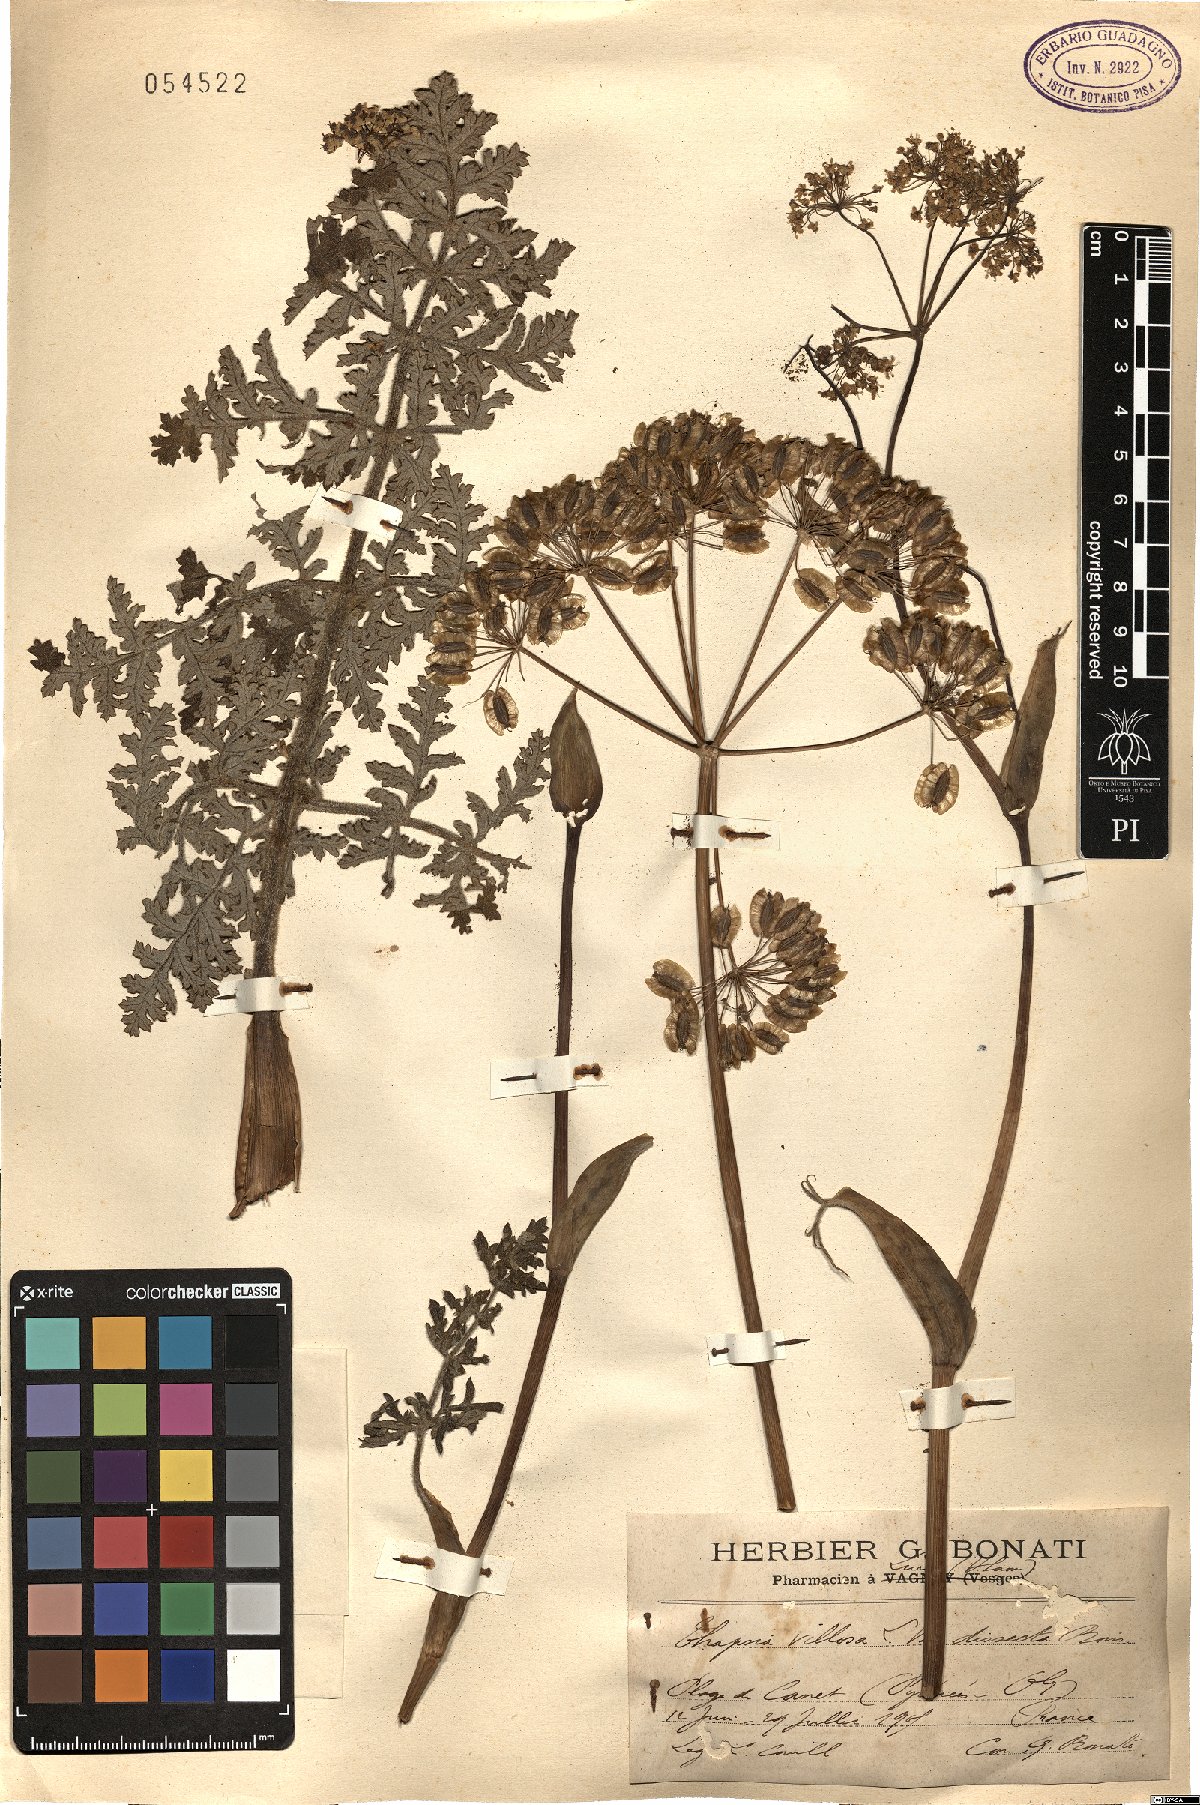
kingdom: Plantae
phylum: Tracheophyta
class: Magnoliopsida
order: Apiales
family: Apiaceae
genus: Thapsia
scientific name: Thapsia villosa
